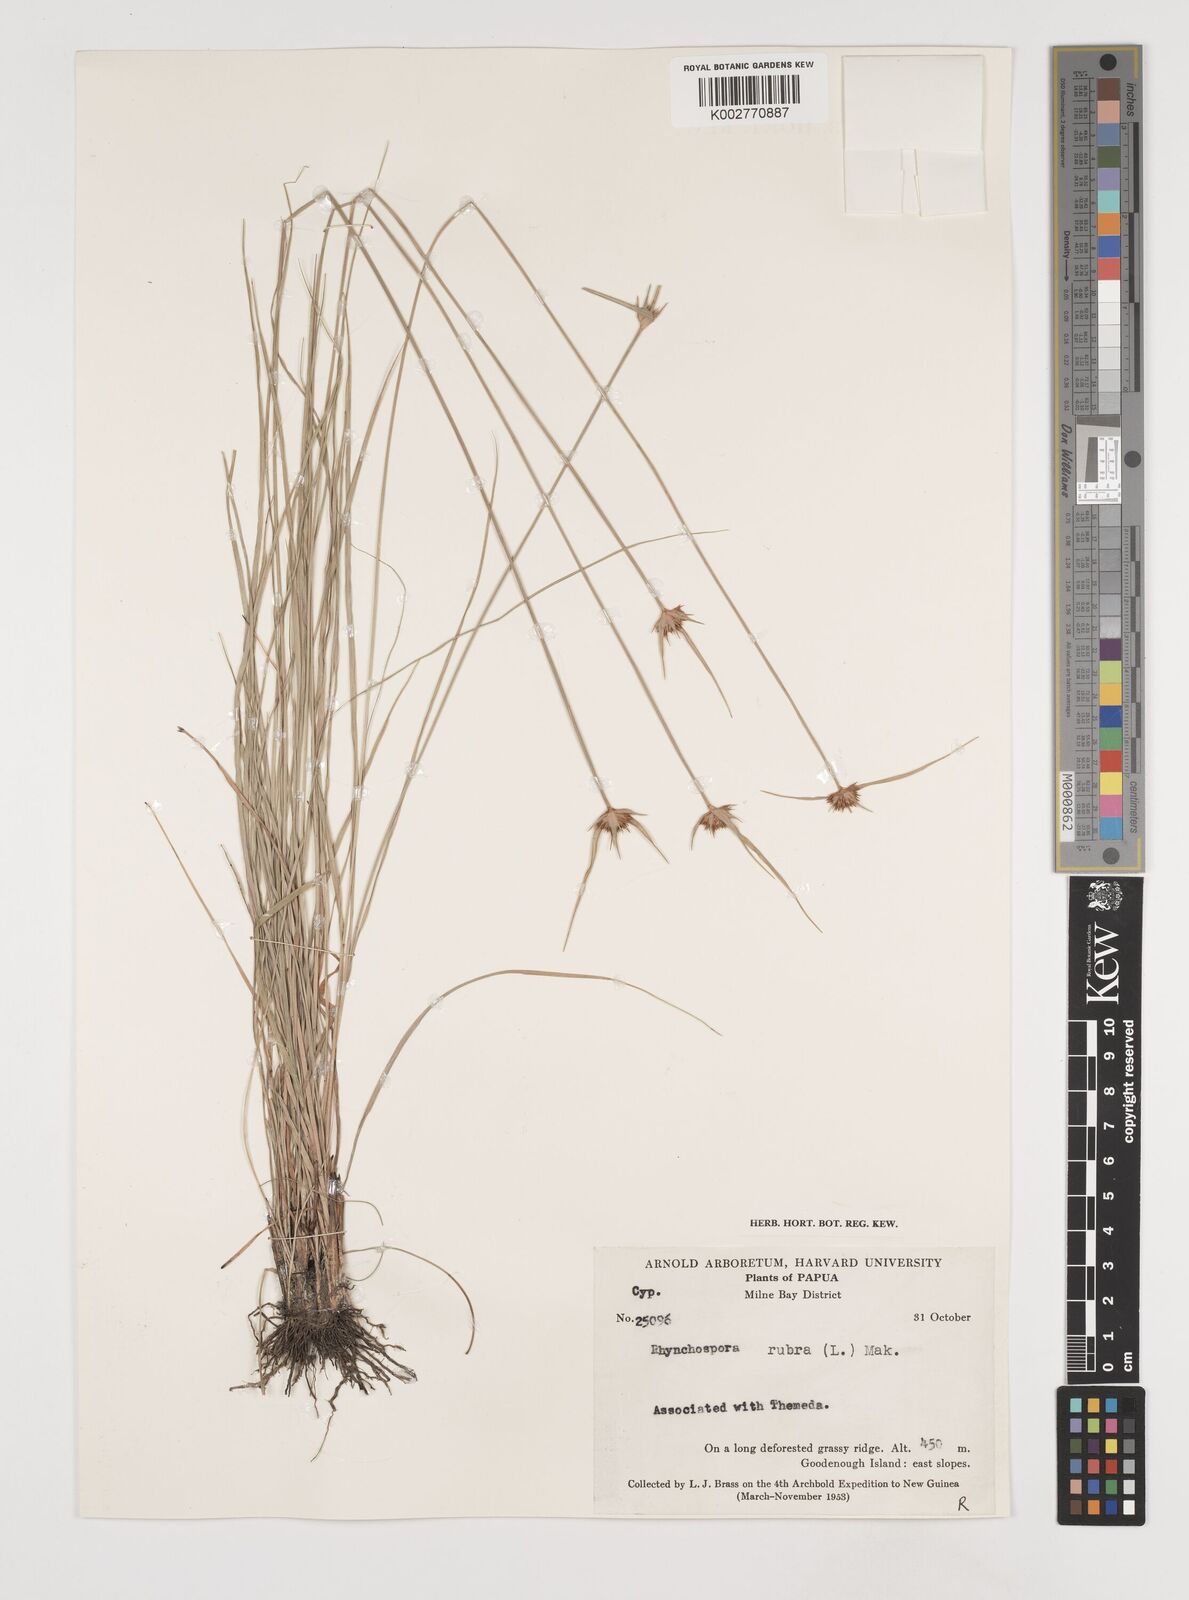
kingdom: Plantae
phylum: Tracheophyta
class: Liliopsida
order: Poales
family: Cyperaceae
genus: Rhynchospora
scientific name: Rhynchospora rubra
